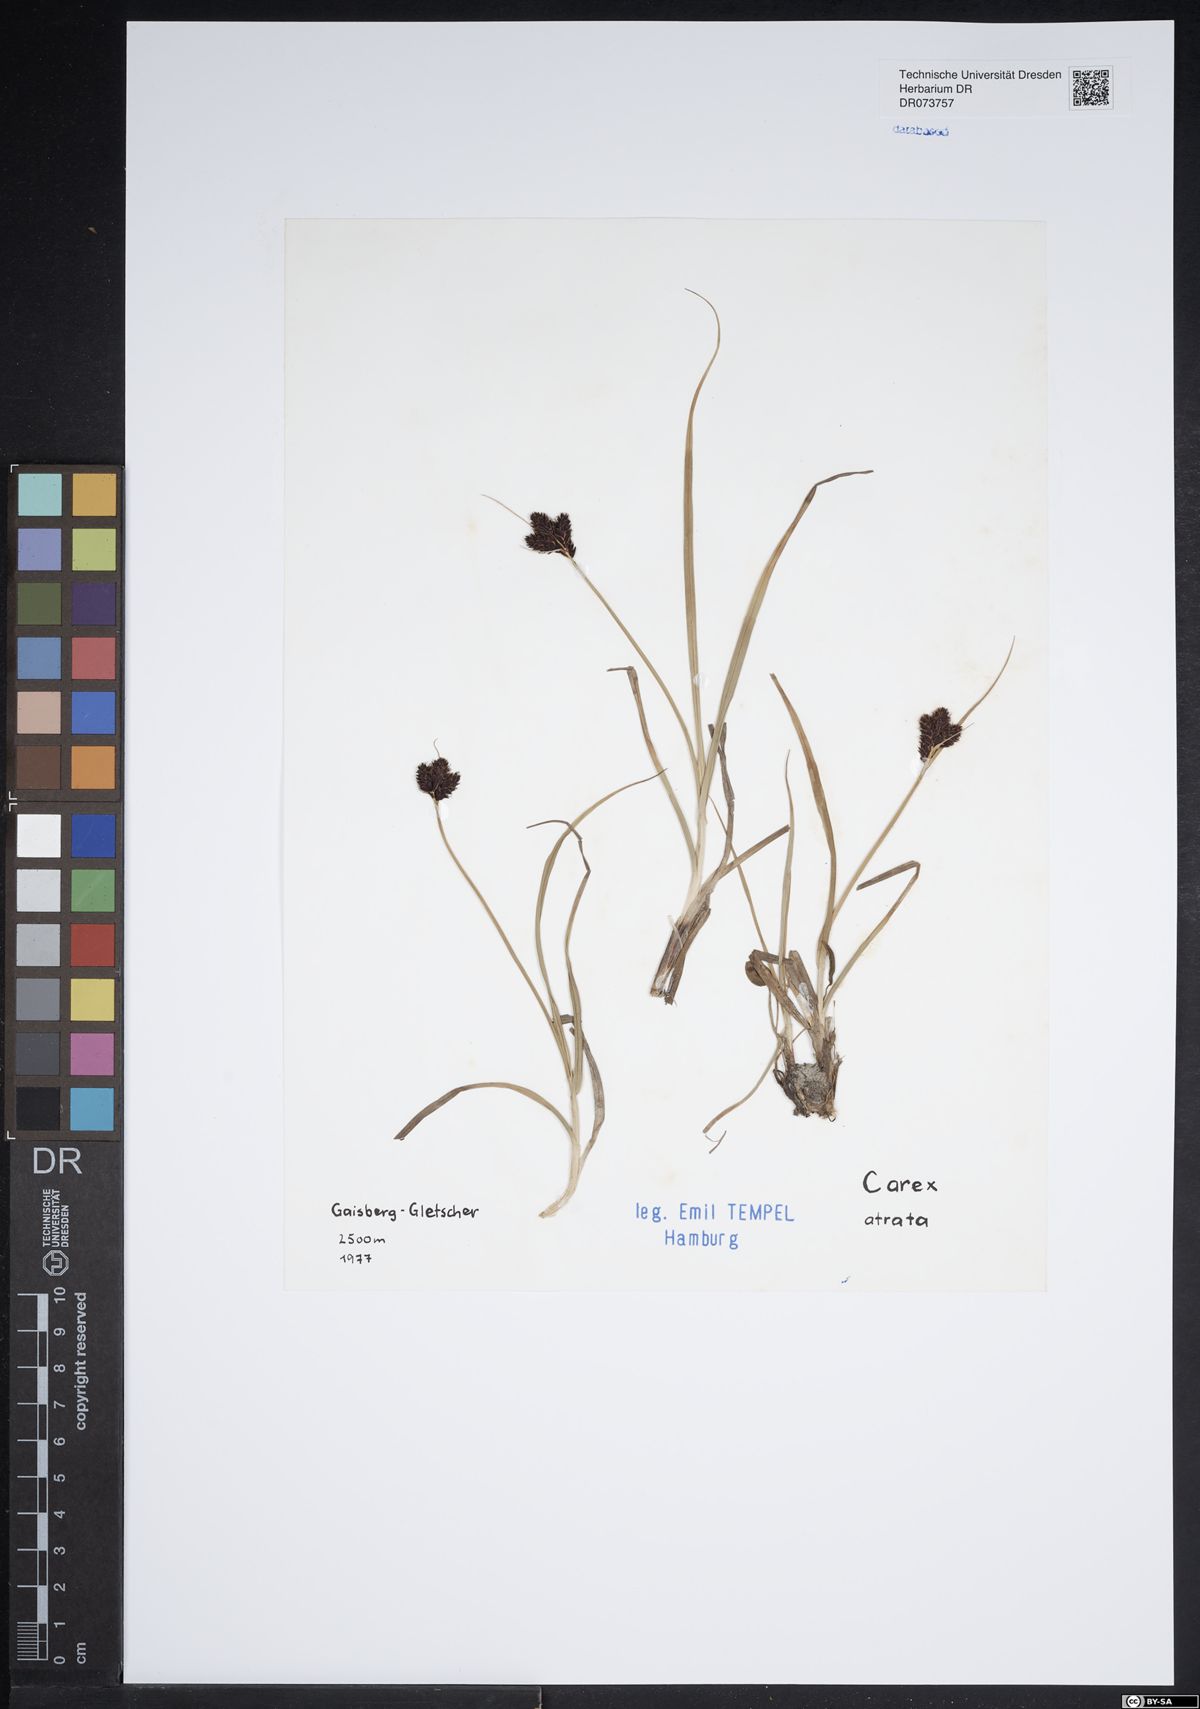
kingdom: Plantae
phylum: Tracheophyta
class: Liliopsida
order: Poales
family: Cyperaceae
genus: Carex
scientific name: Carex atrata
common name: Black alpine sedge
